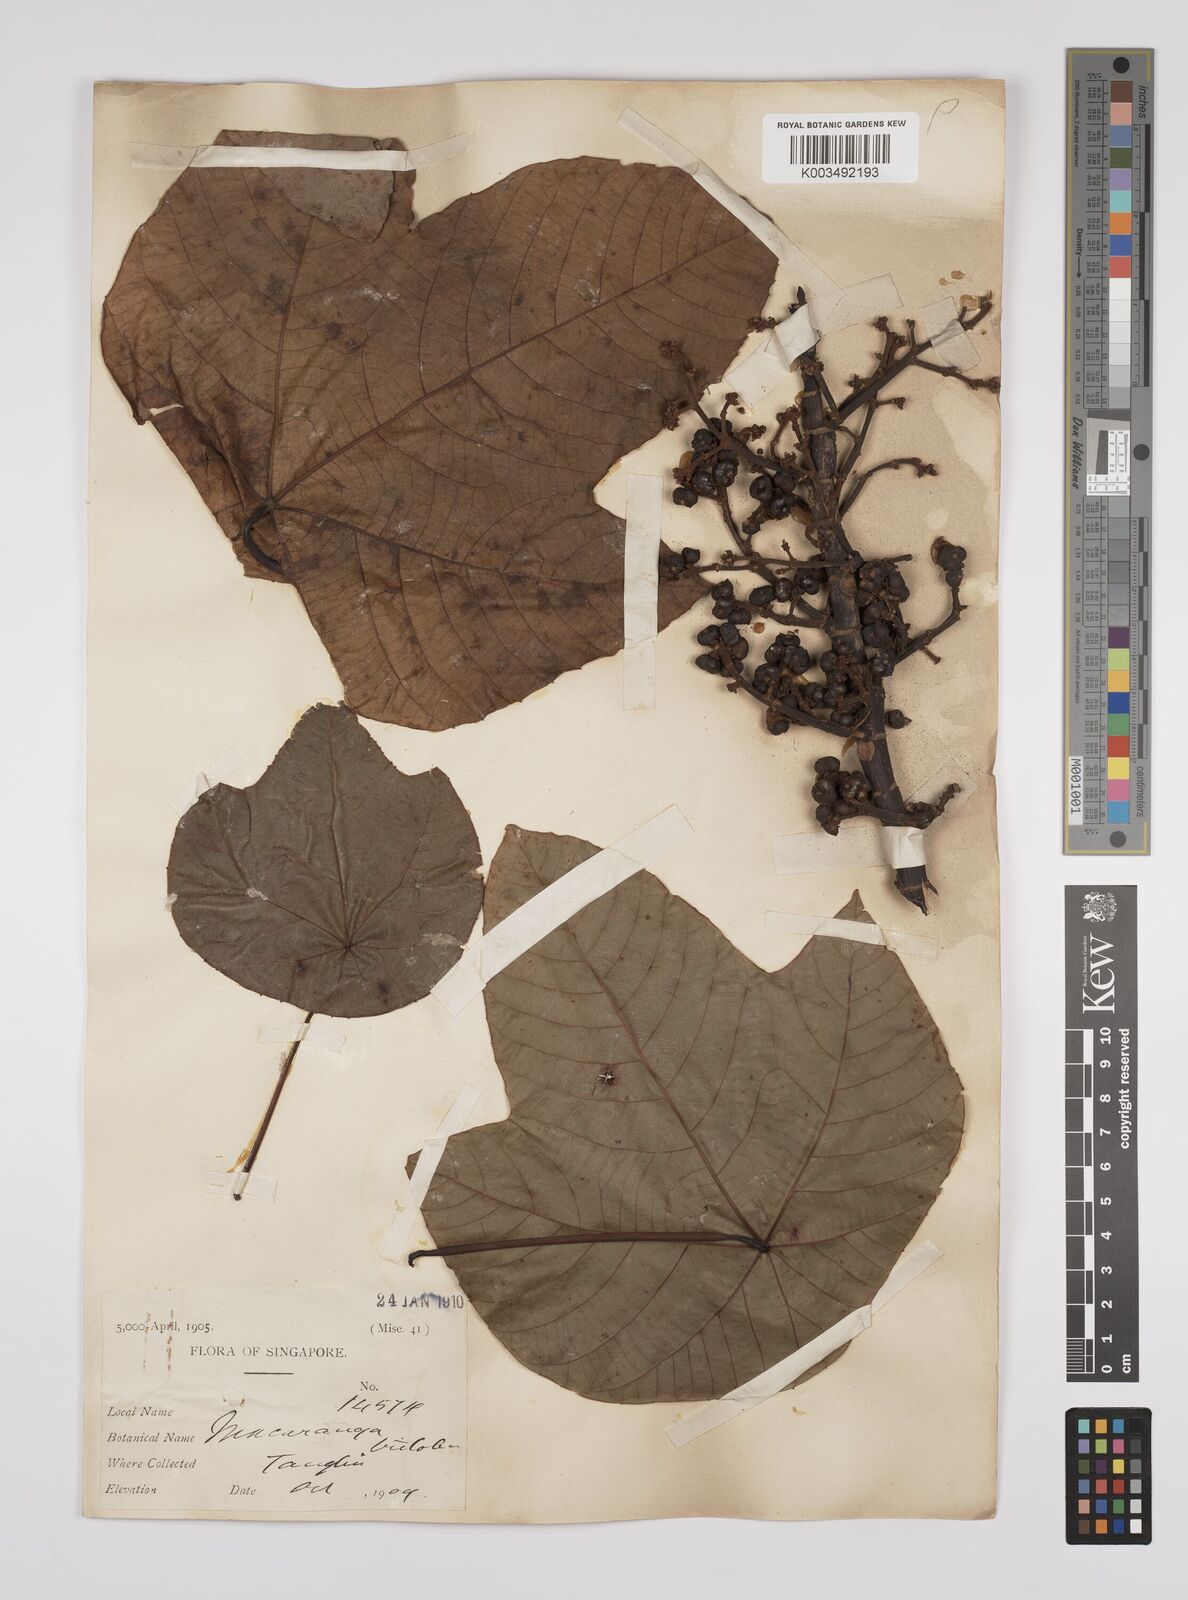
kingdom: Plantae
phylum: Tracheophyta
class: Magnoliopsida
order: Malpighiales
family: Euphorbiaceae
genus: Macaranga
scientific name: Macaranga triloba
